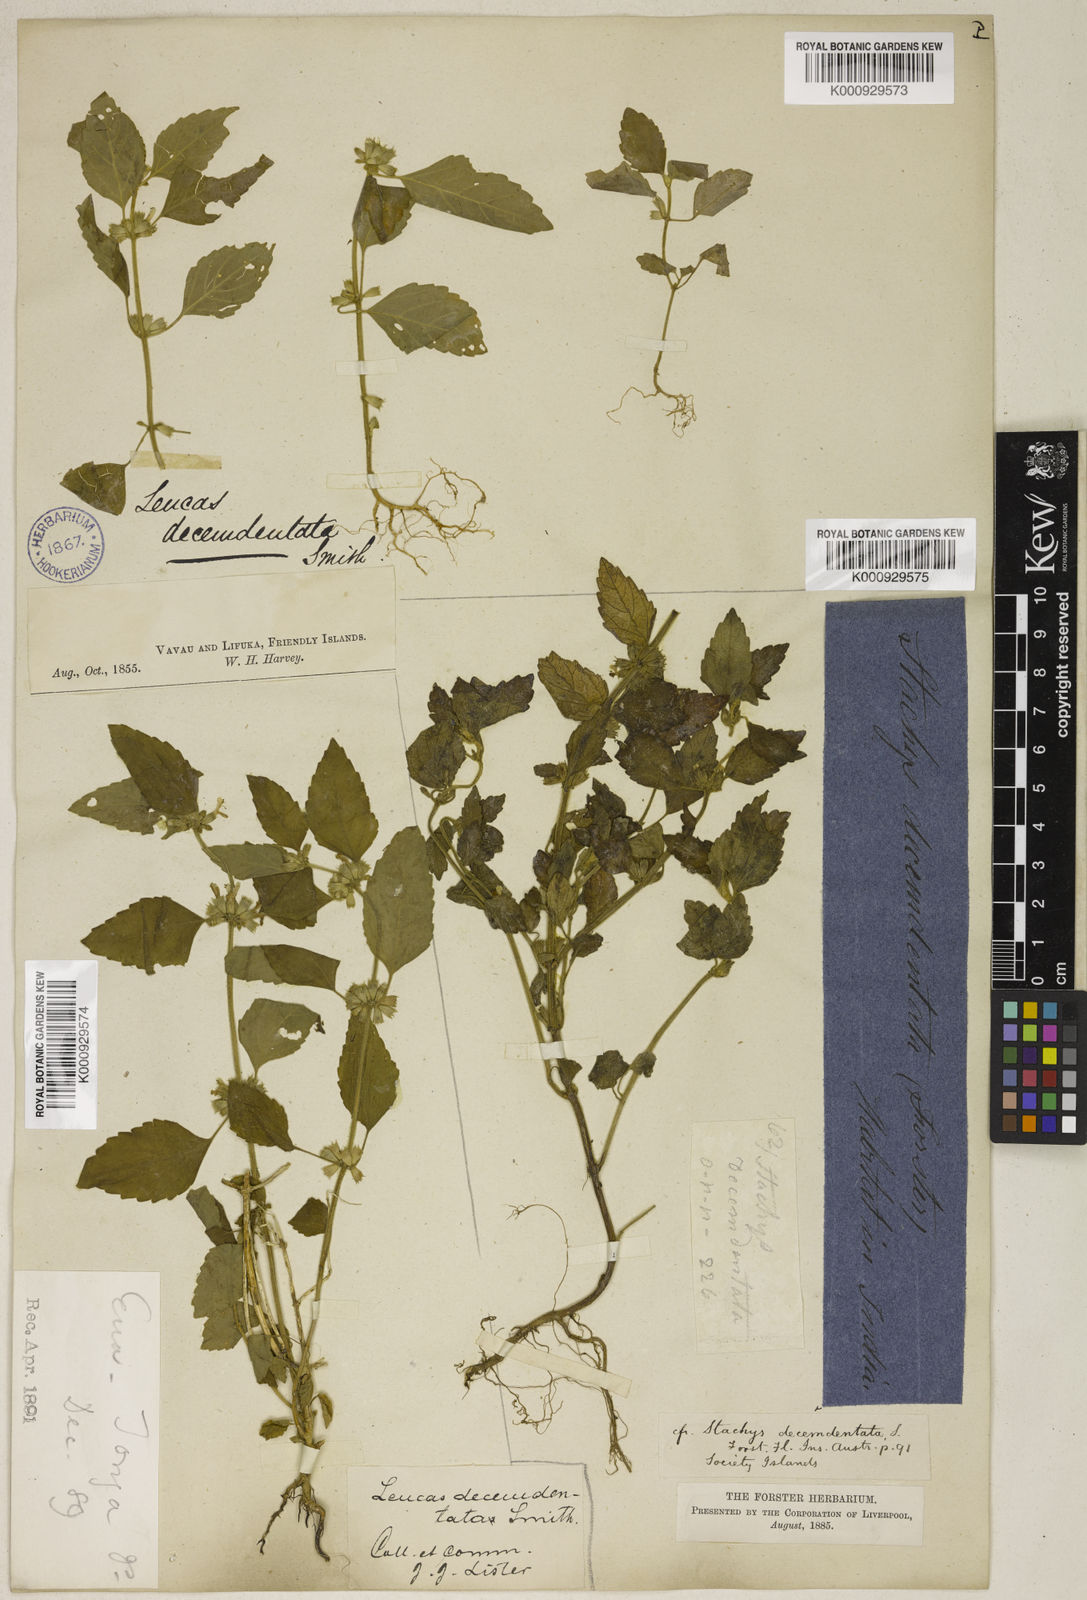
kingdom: Plantae
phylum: Tracheophyta
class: Magnoliopsida
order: Lamiales
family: Lamiaceae
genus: Leucas
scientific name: Leucas decemdentata
